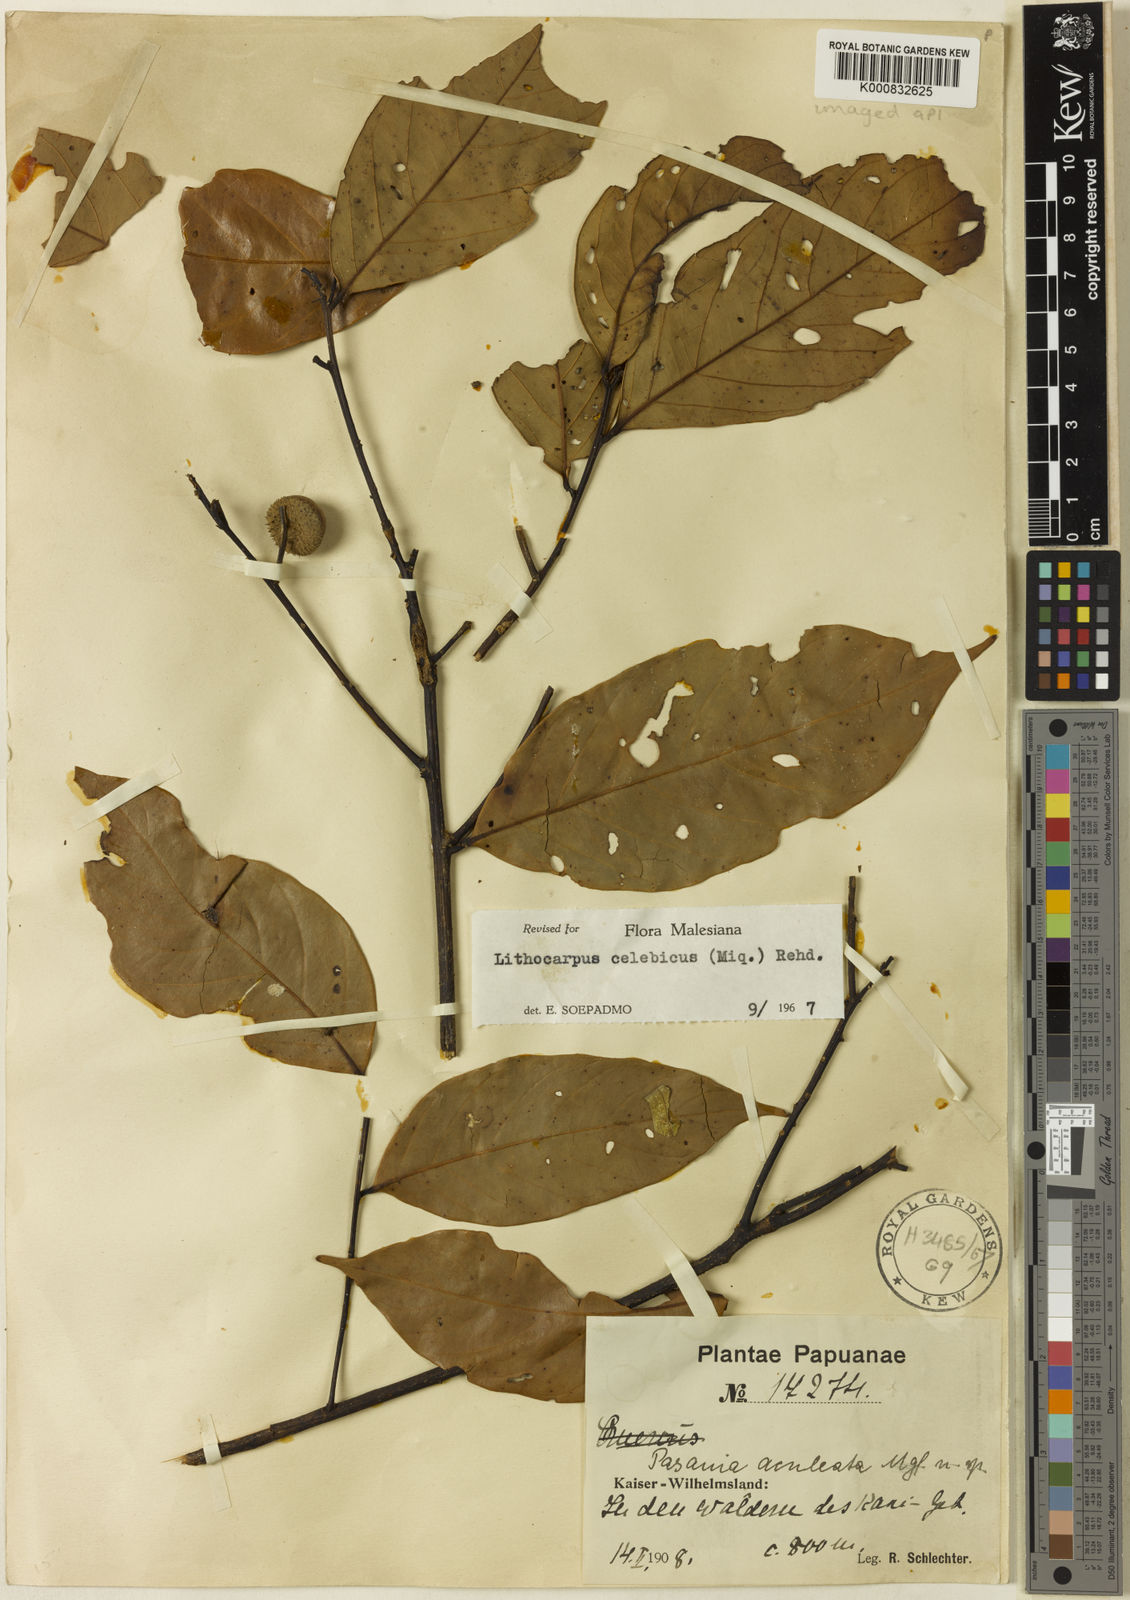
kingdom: Plantae
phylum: Tracheophyta
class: Magnoliopsida
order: Fagales
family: Fagaceae
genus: Lithocarpus
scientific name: Lithocarpus celebicus
